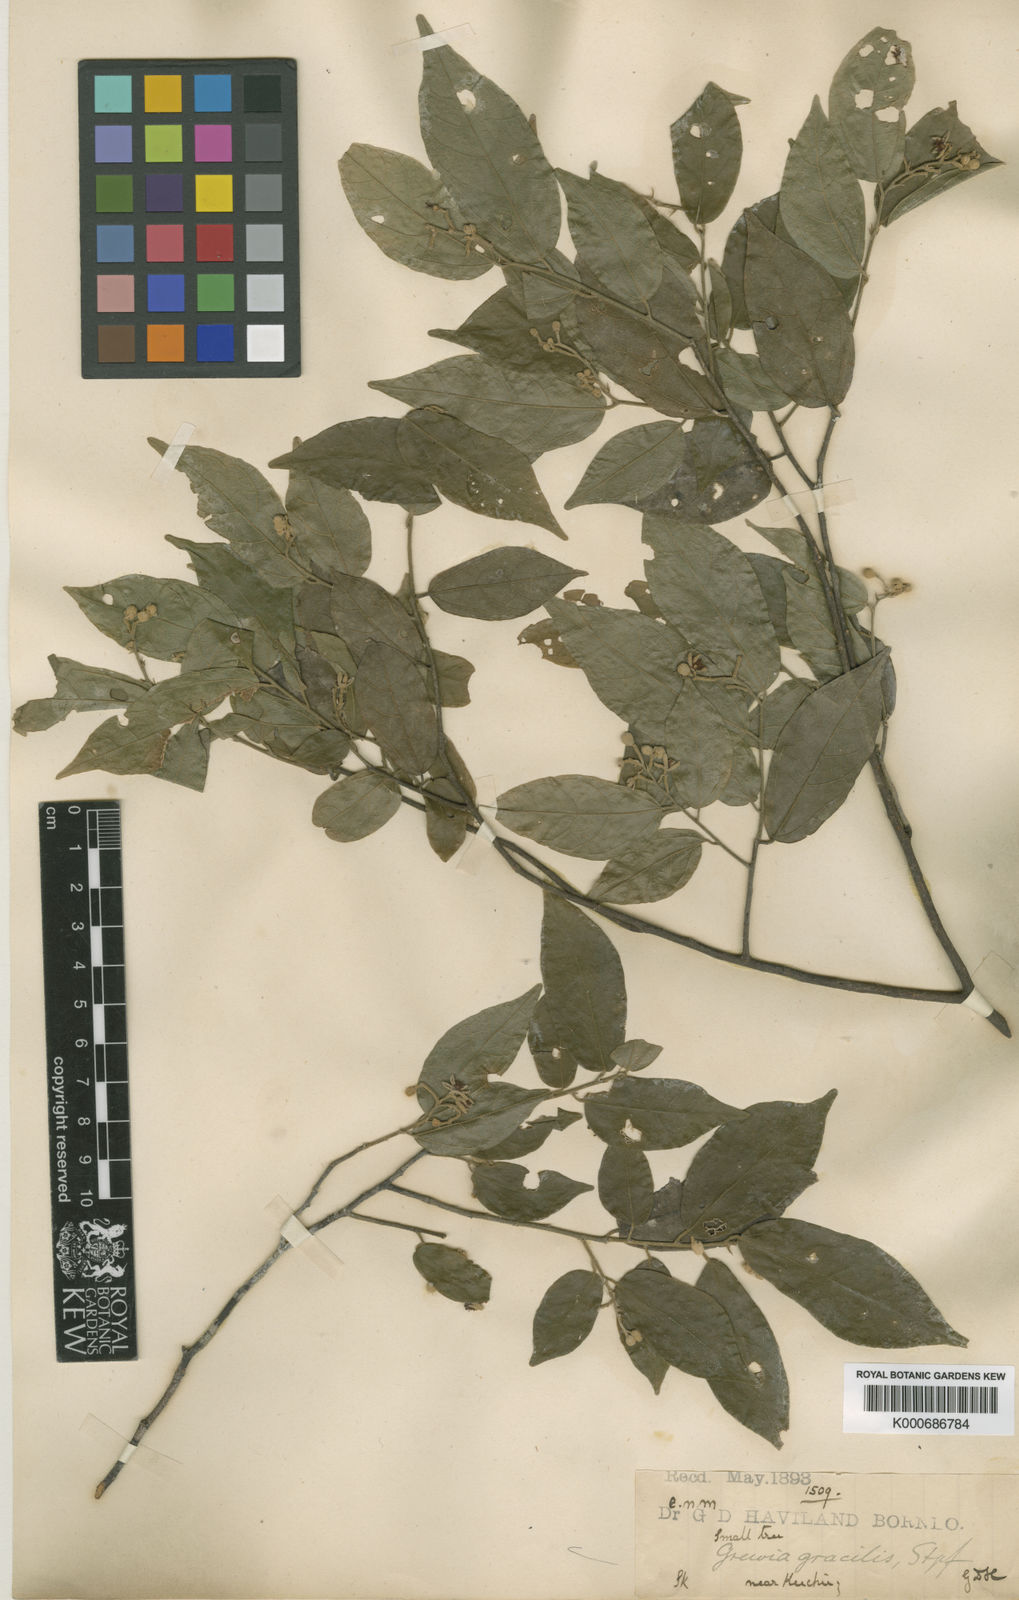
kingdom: Plantae
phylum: Tracheophyta
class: Magnoliopsida
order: Malvales
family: Malvaceae
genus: Microcos
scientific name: Microcos gracilis
